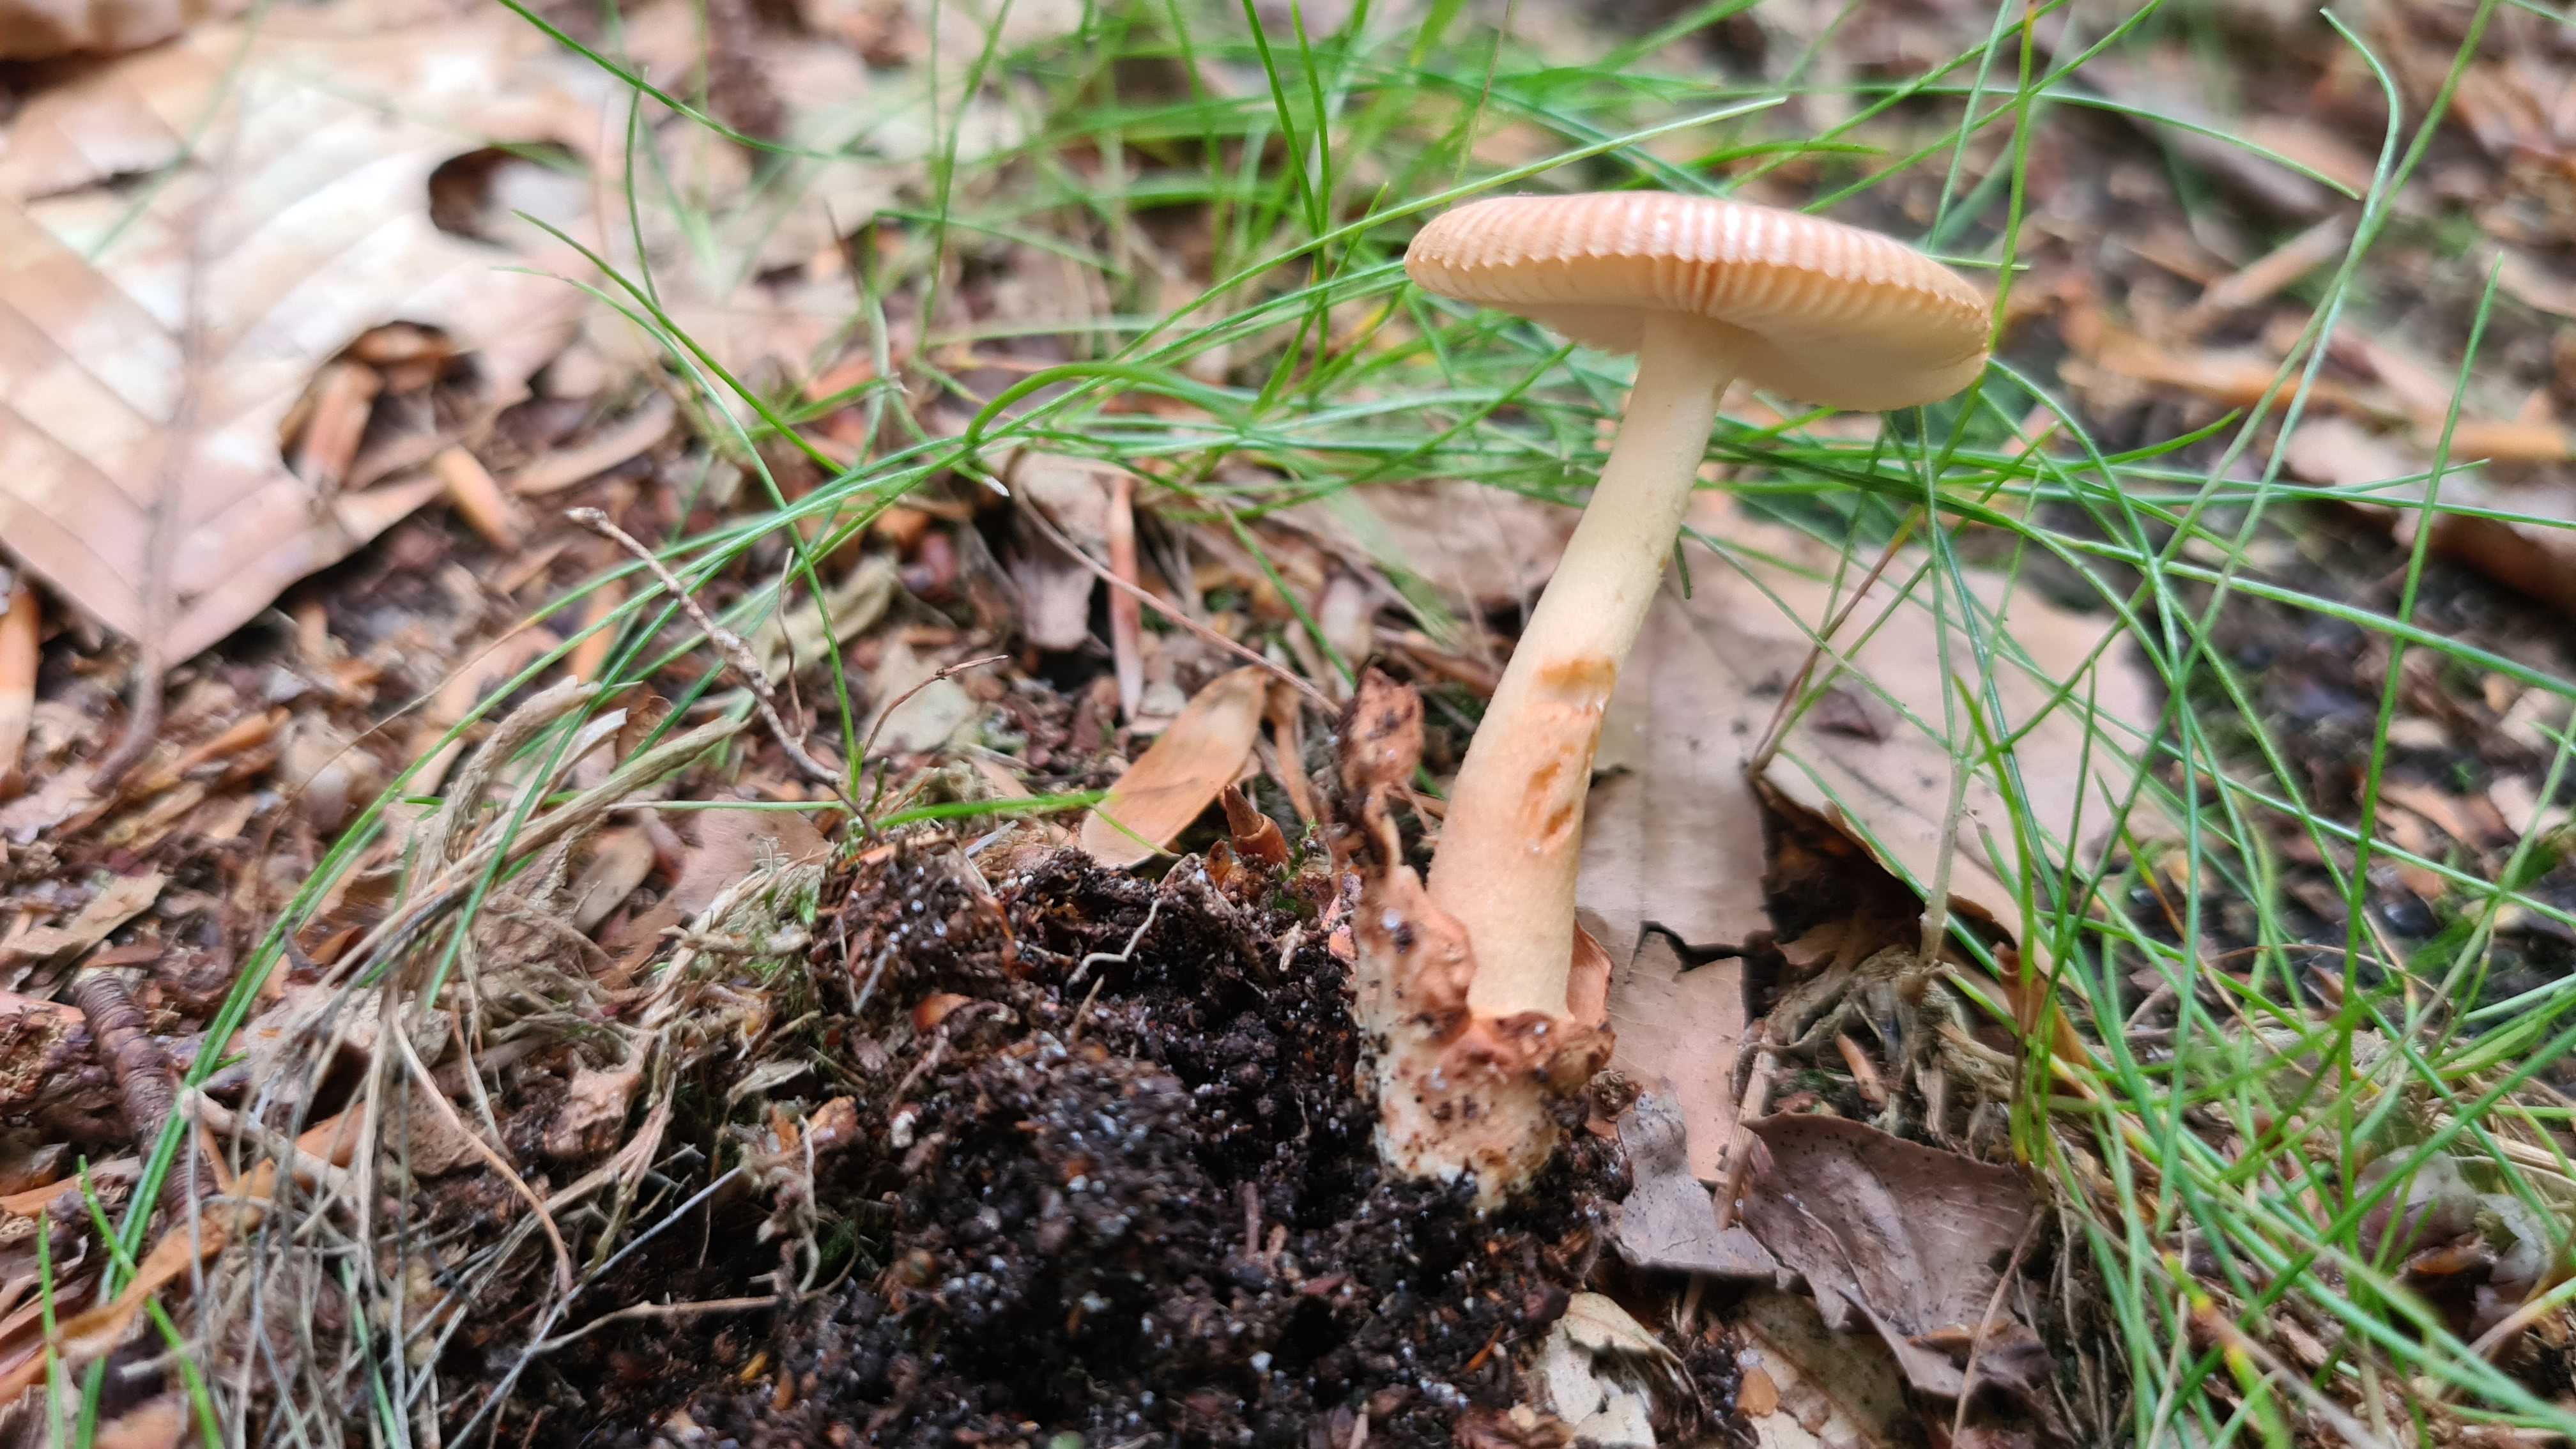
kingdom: Fungi
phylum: Basidiomycota
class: Agaricomycetes
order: Agaricales
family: Amanitaceae
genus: Amanita
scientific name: Amanita fulva
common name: brun kam-fluesvamp
